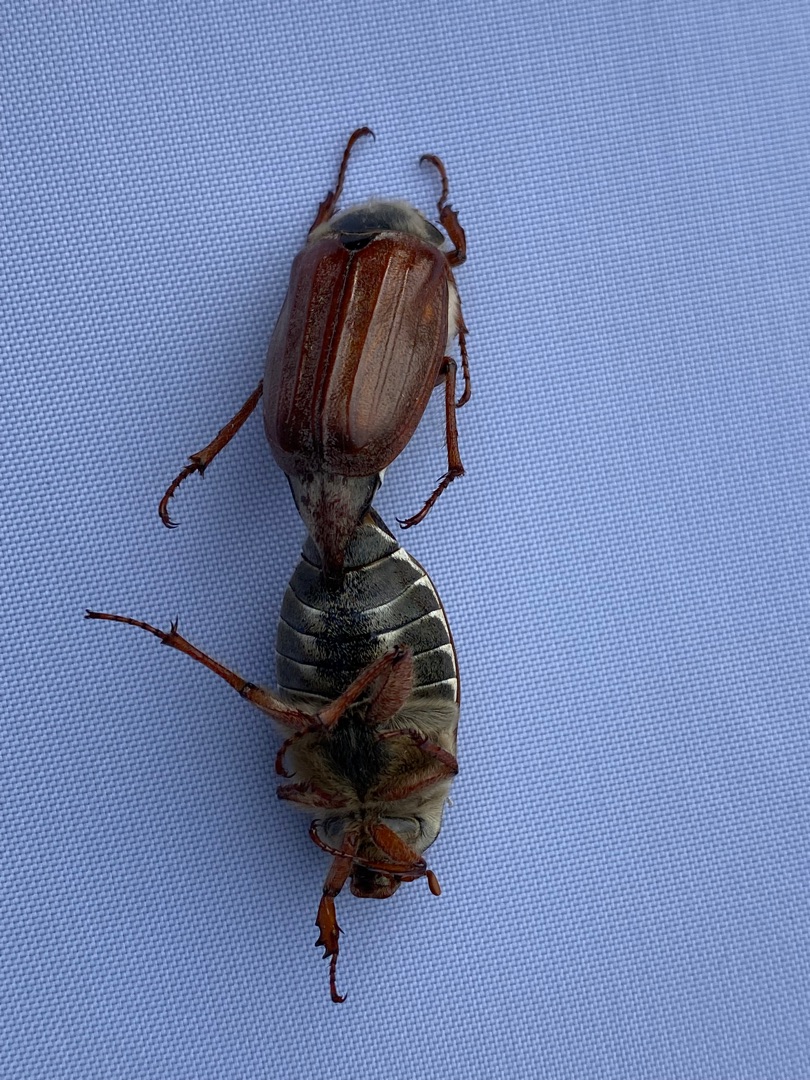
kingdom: Animalia
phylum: Arthropoda
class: Insecta
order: Coleoptera
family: Scarabaeidae
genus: Melolontha
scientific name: Melolontha melolontha
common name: Almindelig oldenborre
